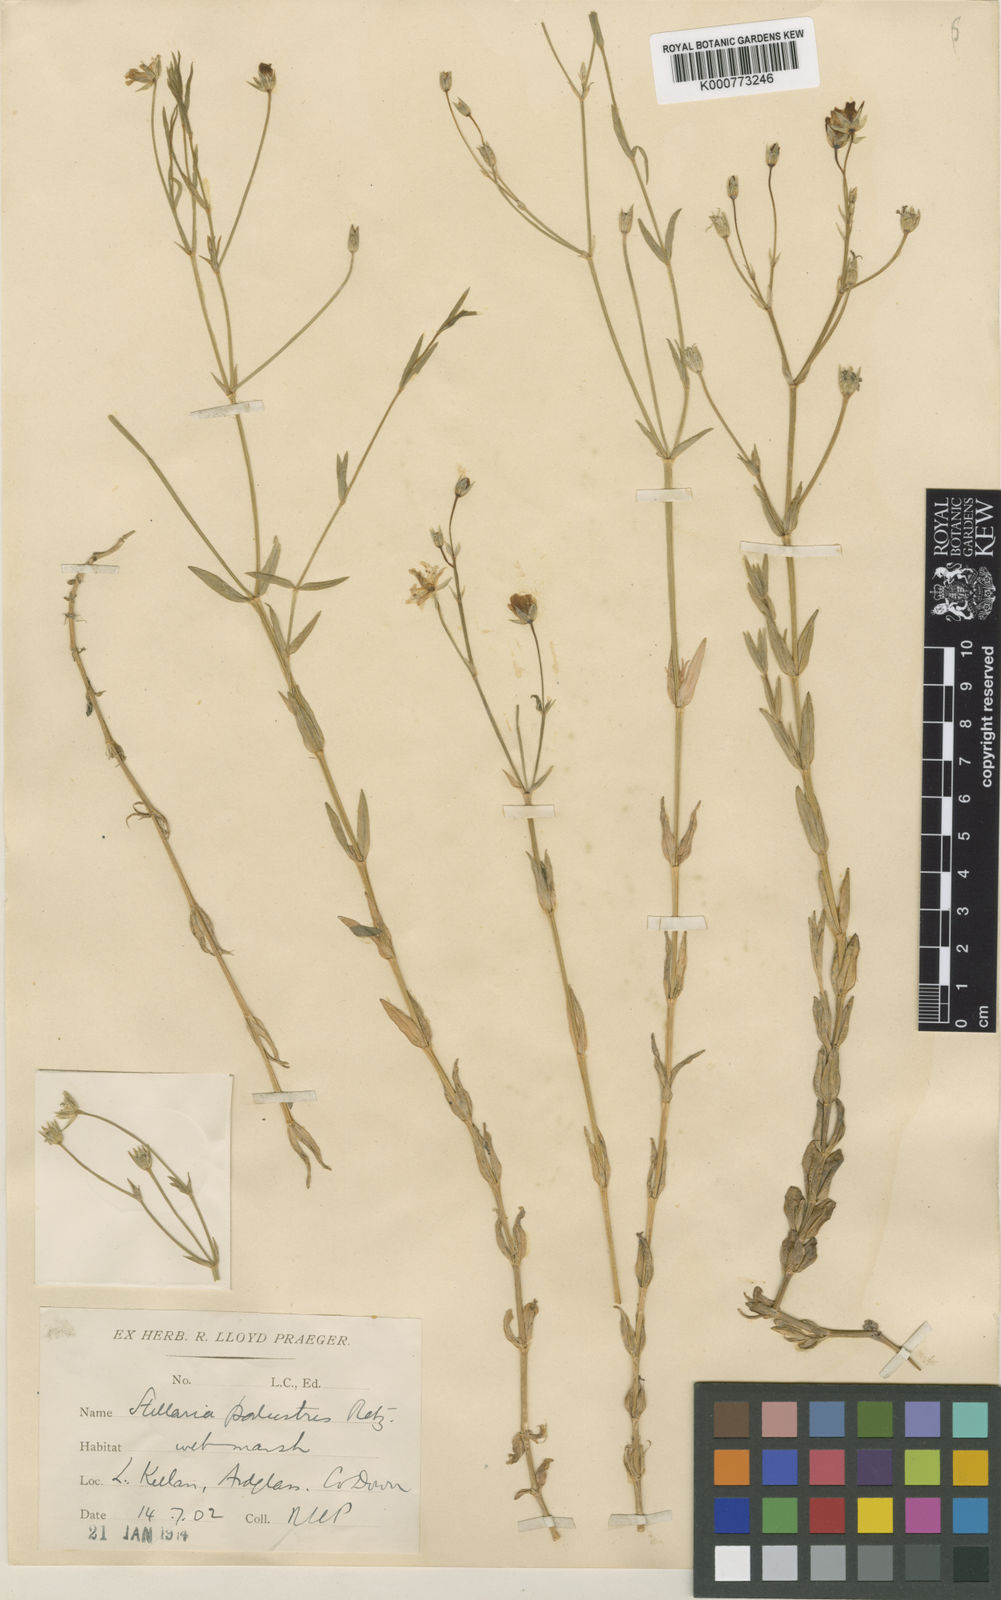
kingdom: Plantae
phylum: Tracheophyta
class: Magnoliopsida
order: Caryophyllales
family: Caryophyllaceae
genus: Stellaria
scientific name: Stellaria
